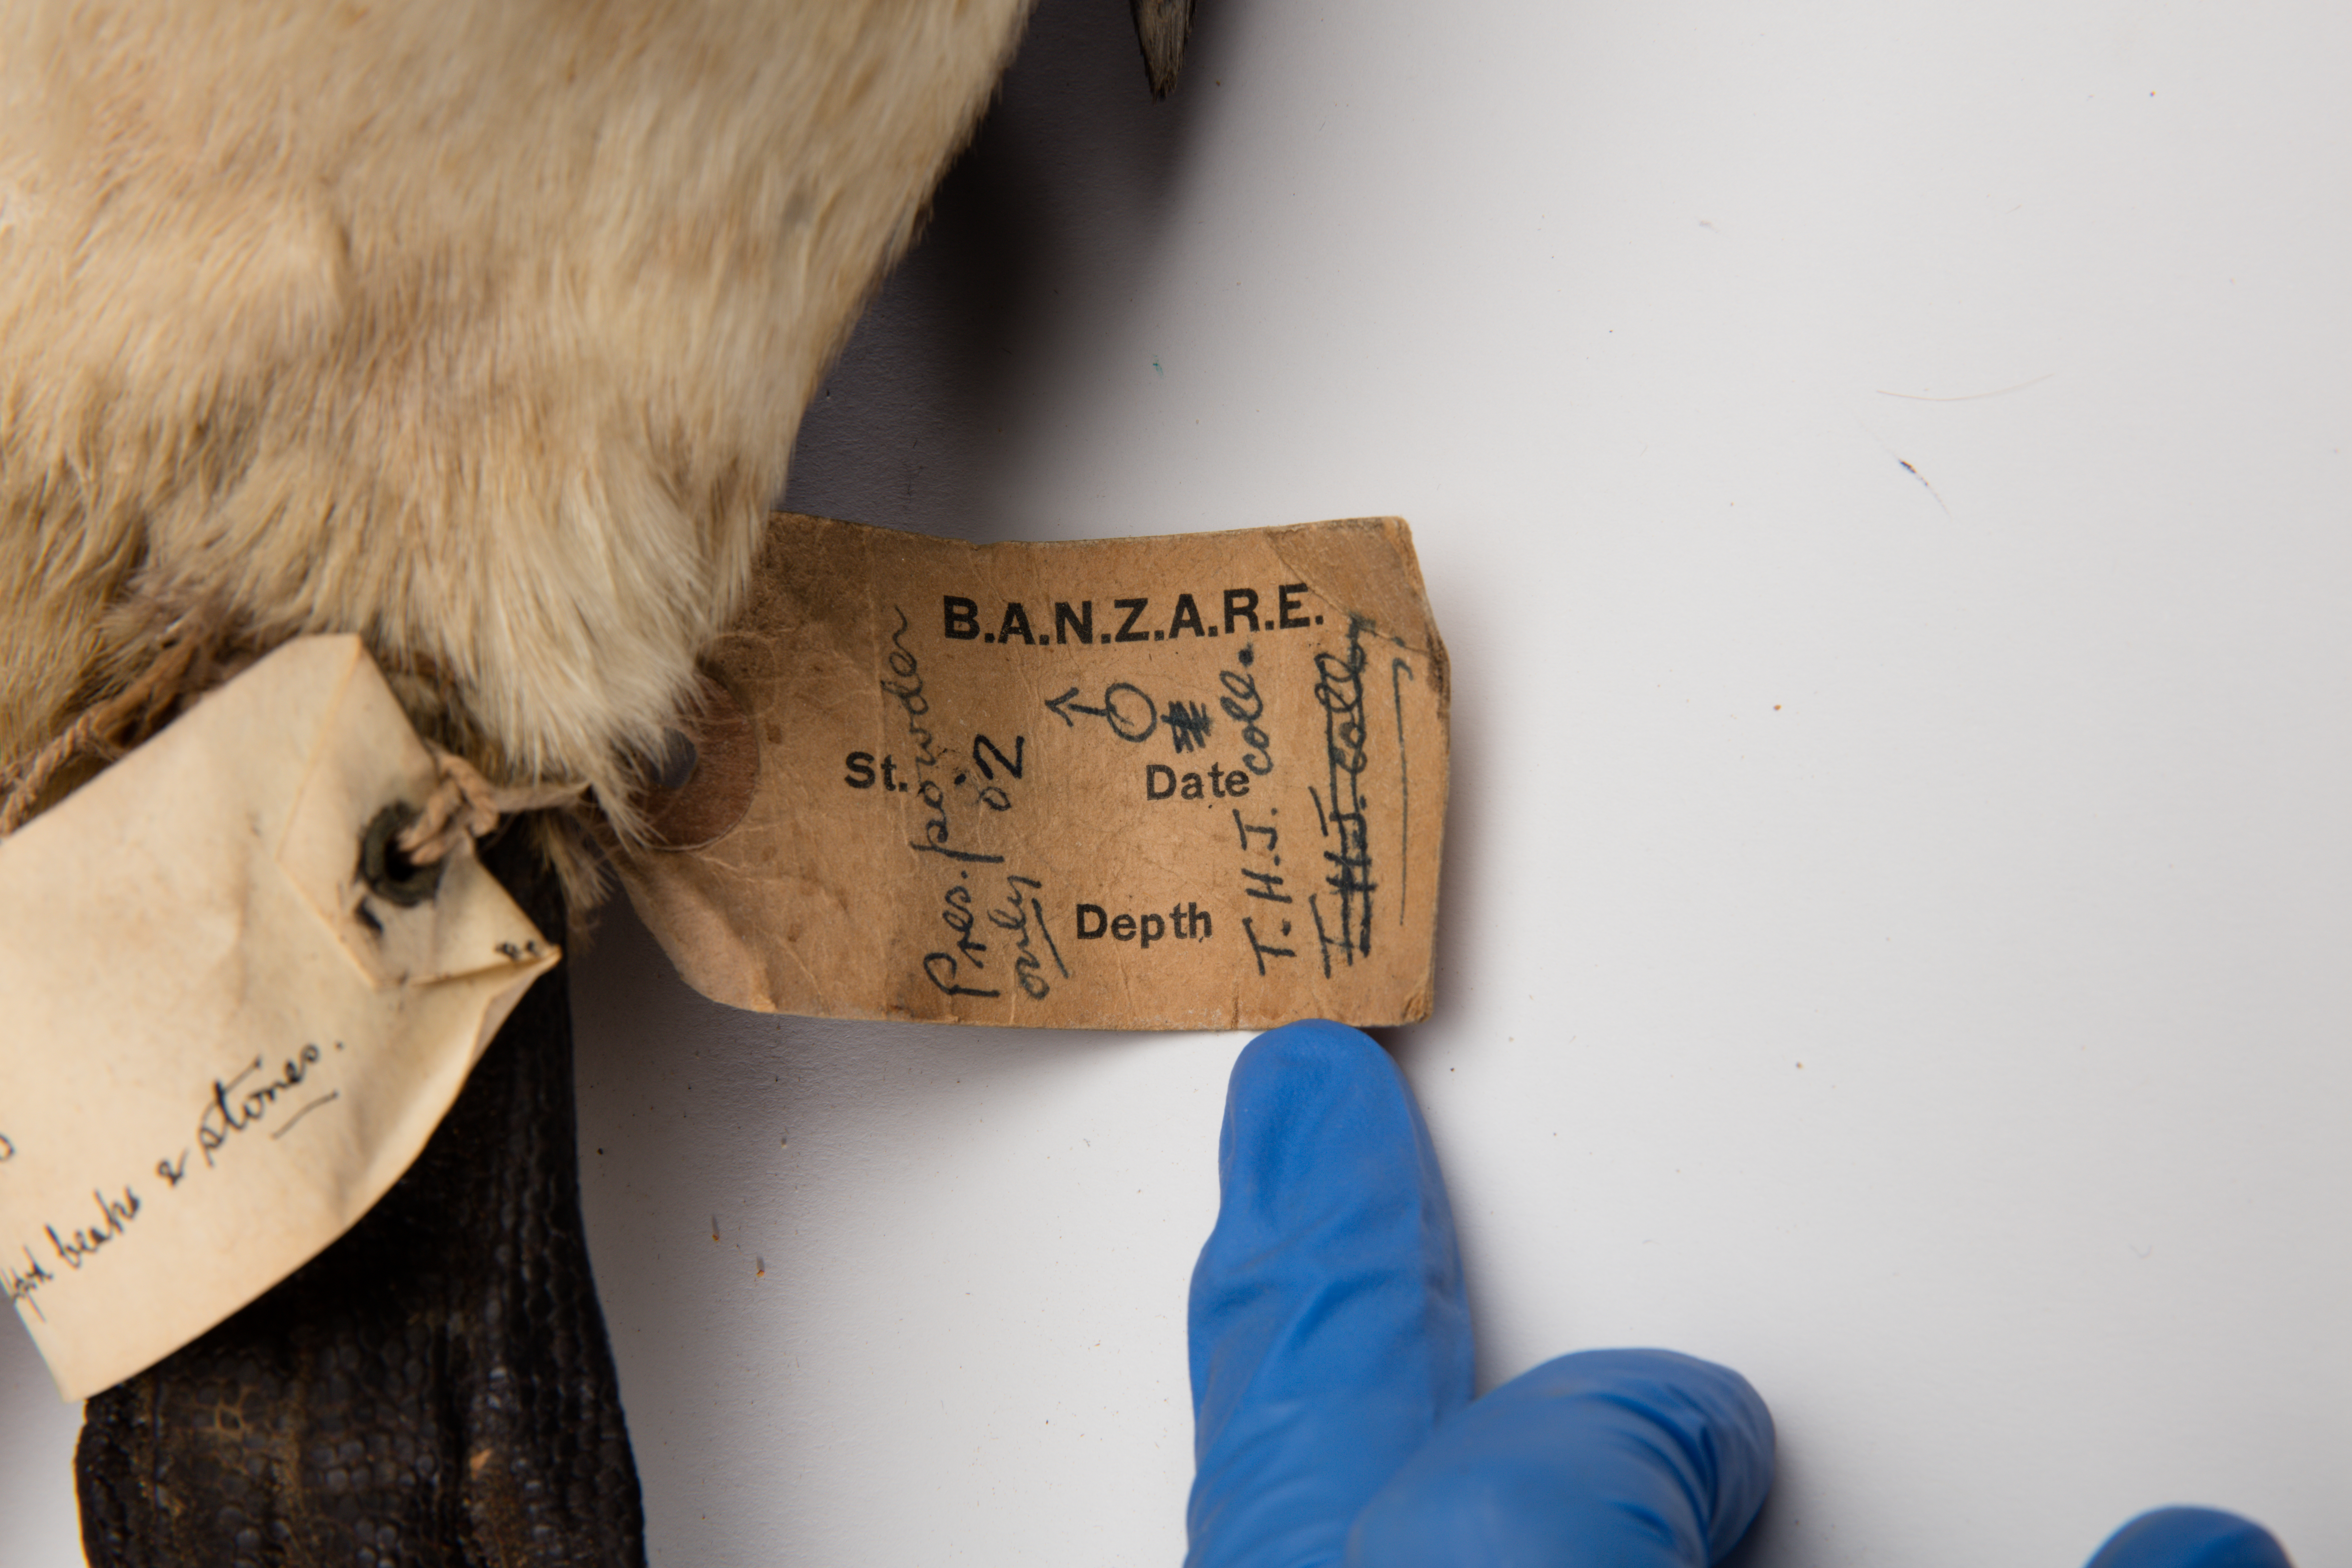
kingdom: Animalia
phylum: Chordata
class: Aves
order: Sphenisciformes
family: Spheniscidae
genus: Aptenodytes
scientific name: Aptenodytes patagonicus
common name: King penguin
